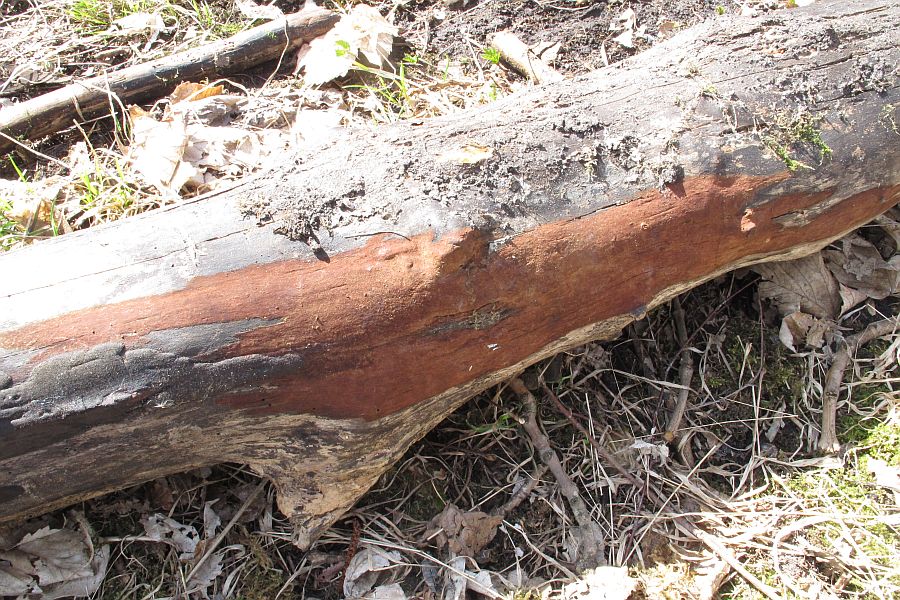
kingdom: Fungi
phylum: Ascomycota
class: Sordariomycetes
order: Xylariales
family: Hypoxylaceae
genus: Hypoxylon
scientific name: Hypoxylon macrocarpum
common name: skorpe-kulbær
